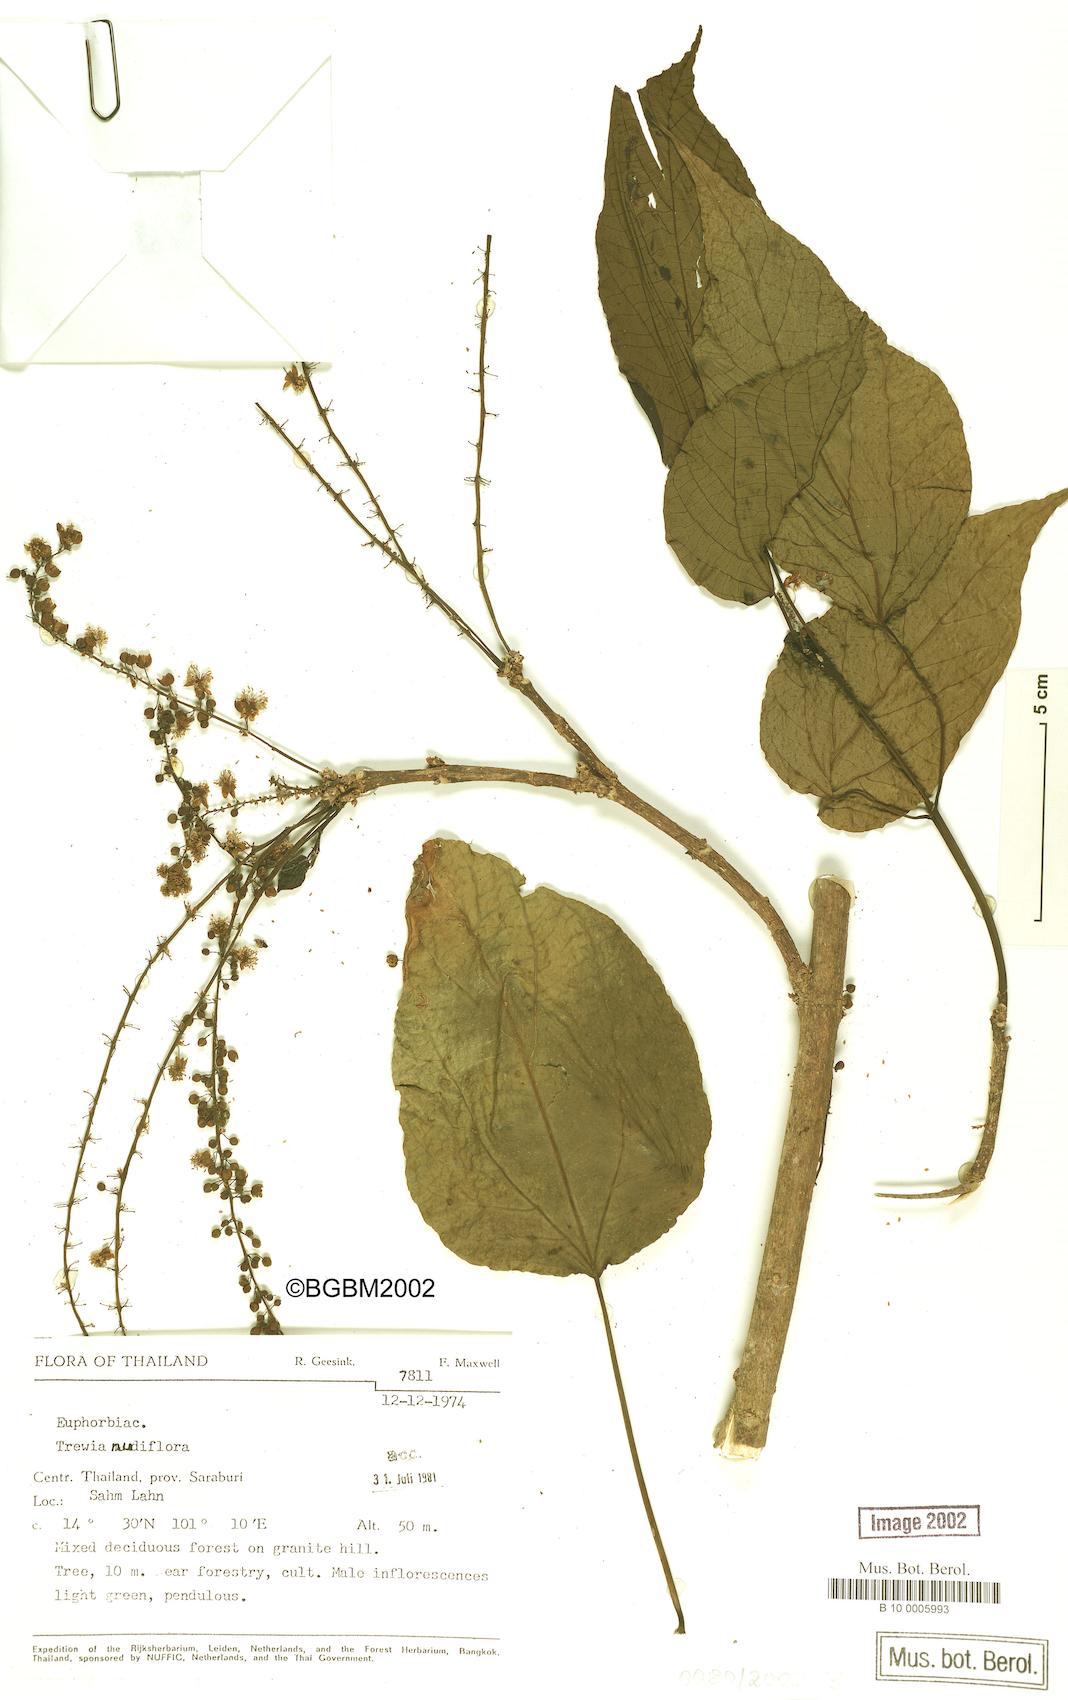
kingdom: Plantae
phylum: Tracheophyta
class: Magnoliopsida
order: Malpighiales
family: Euphorbiaceae
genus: Trewia
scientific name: Trewia nudiflora
